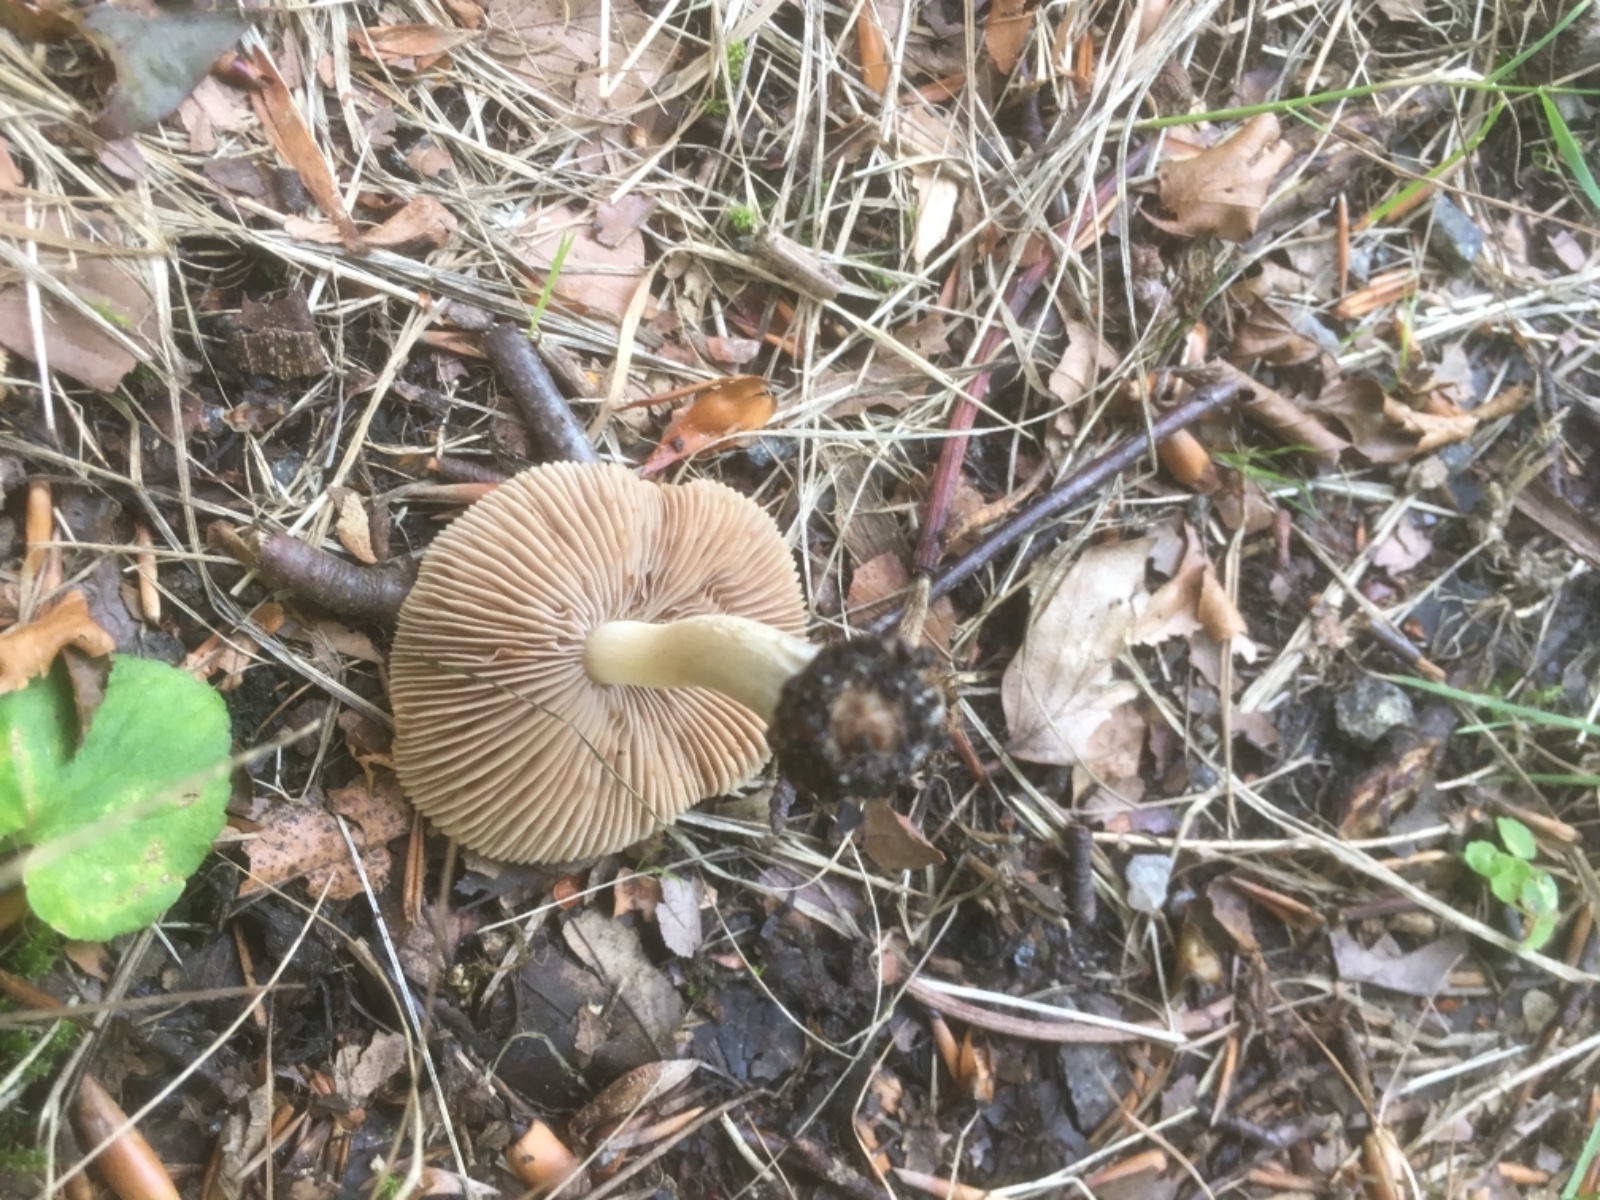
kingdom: Fungi
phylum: Basidiomycota
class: Agaricomycetes
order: Agaricales
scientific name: Agaricales
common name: champignonordenen
